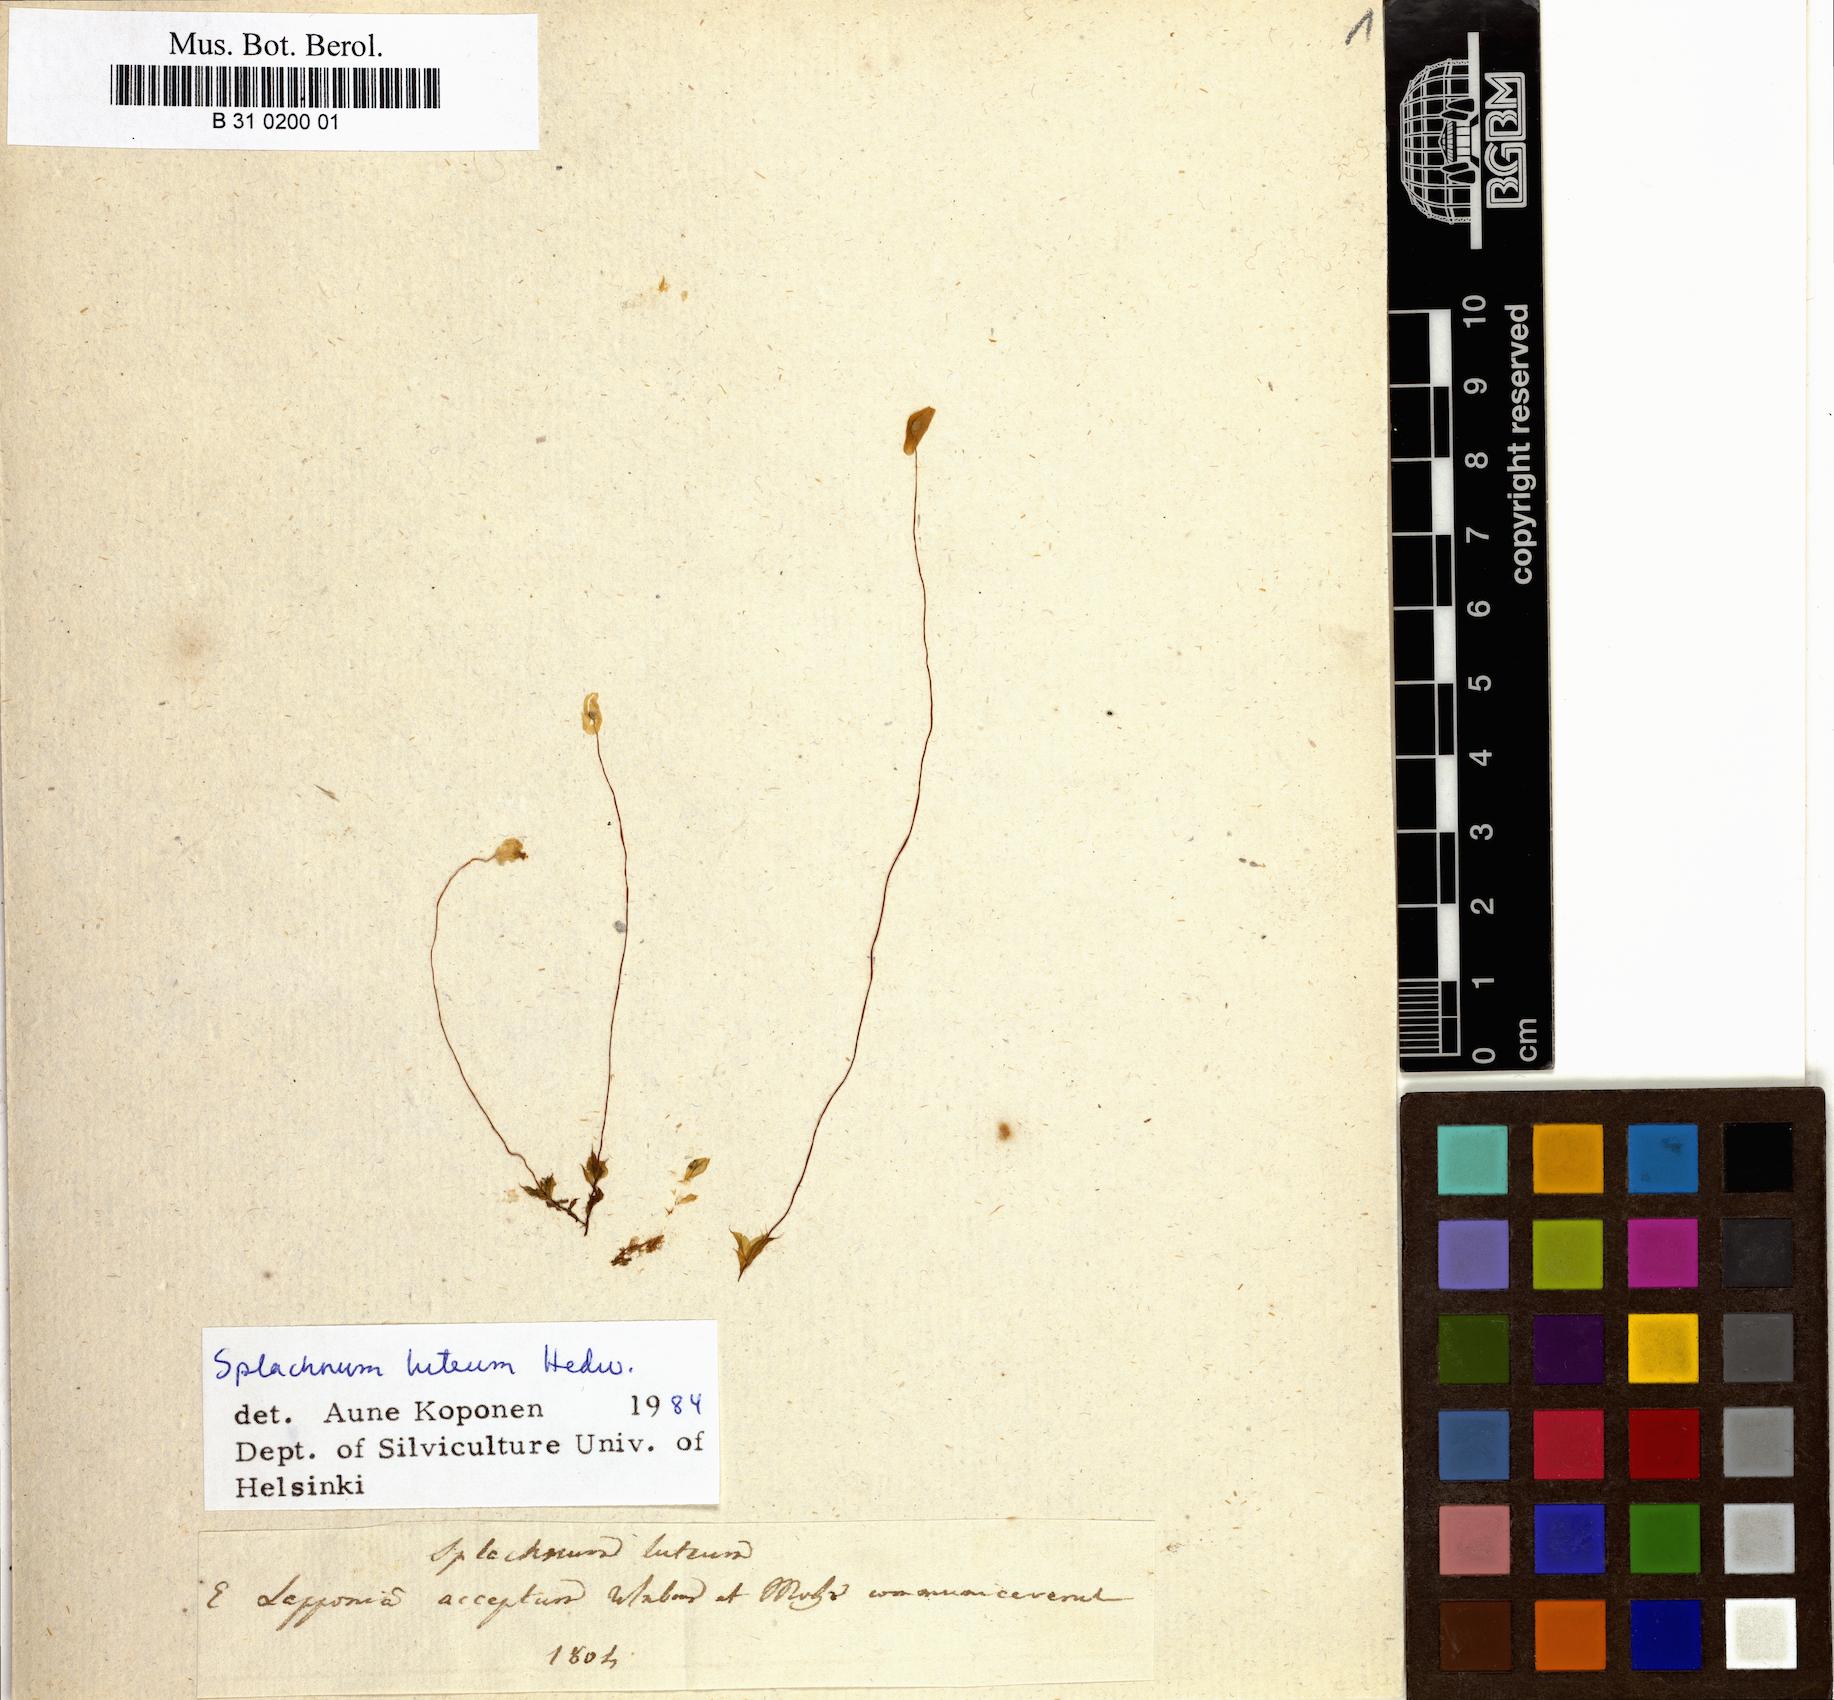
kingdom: Plantae
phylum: Bryophyta
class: Bryopsida
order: Splachnales
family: Splachnaceae
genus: Splachnum
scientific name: Splachnum luteum
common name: Yellow dung moss
